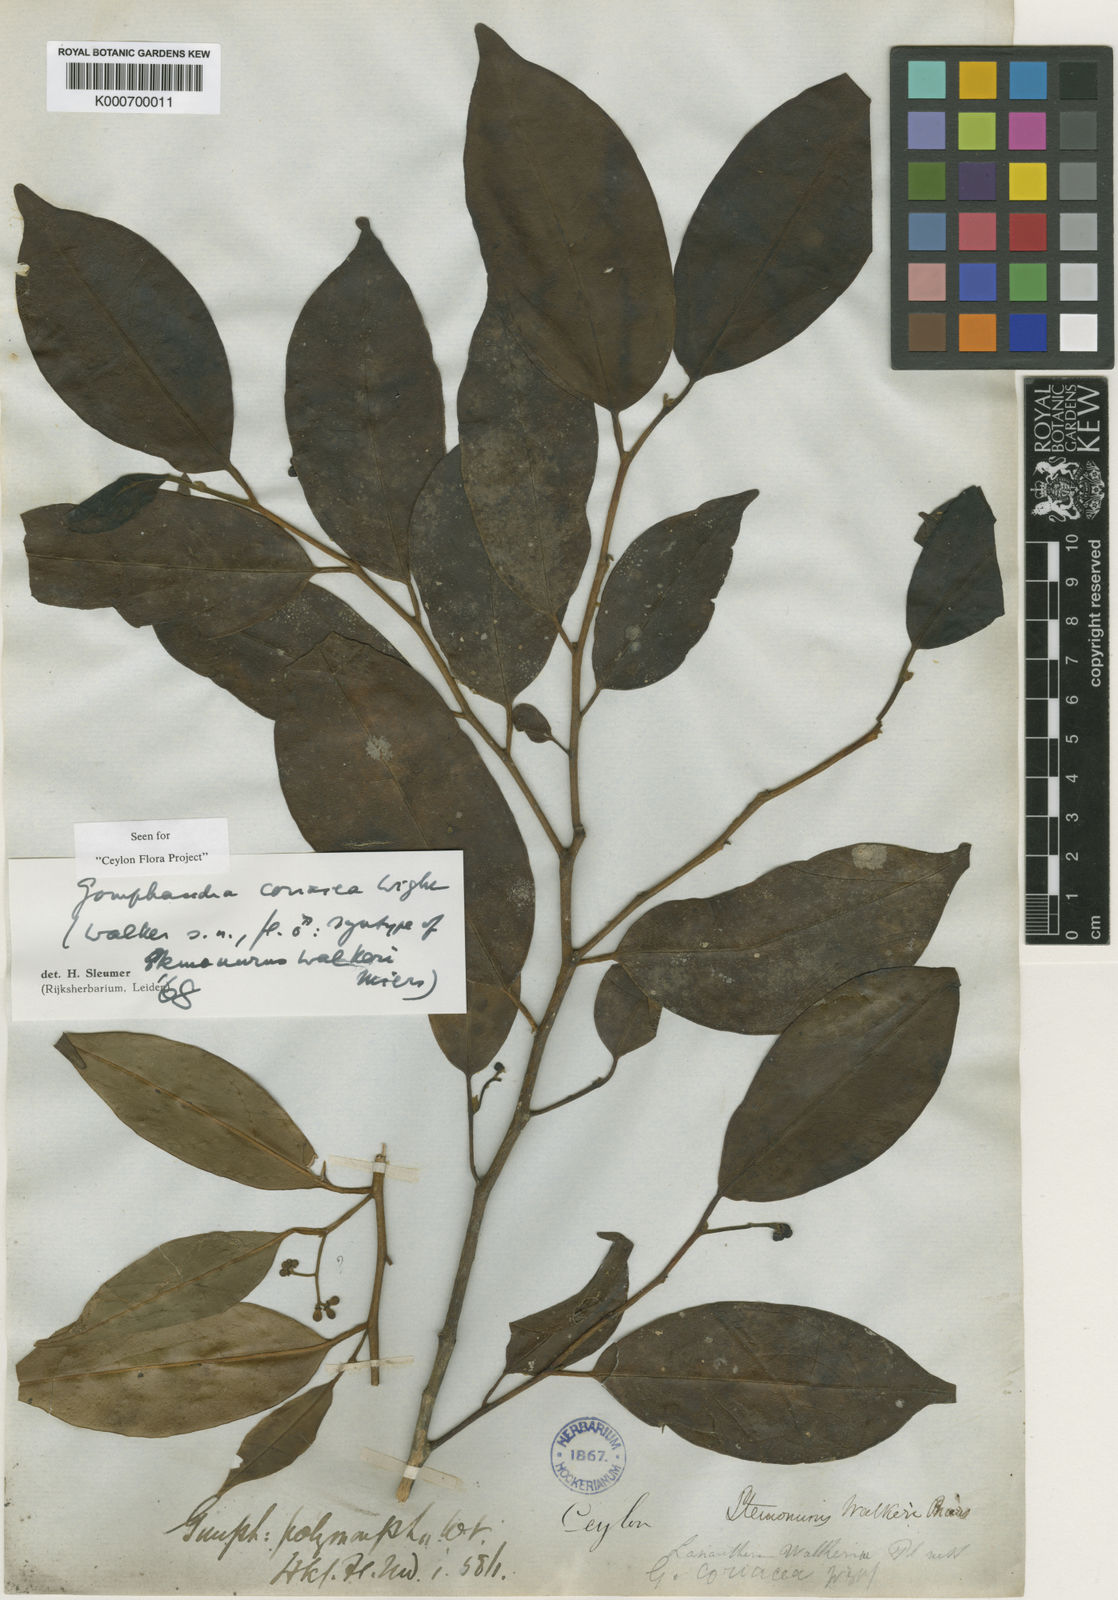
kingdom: Plantae
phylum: Tracheophyta
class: Magnoliopsida
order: Cardiopteridales
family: Stemonuraceae
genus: Gomphandra
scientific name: Gomphandra coriacea
